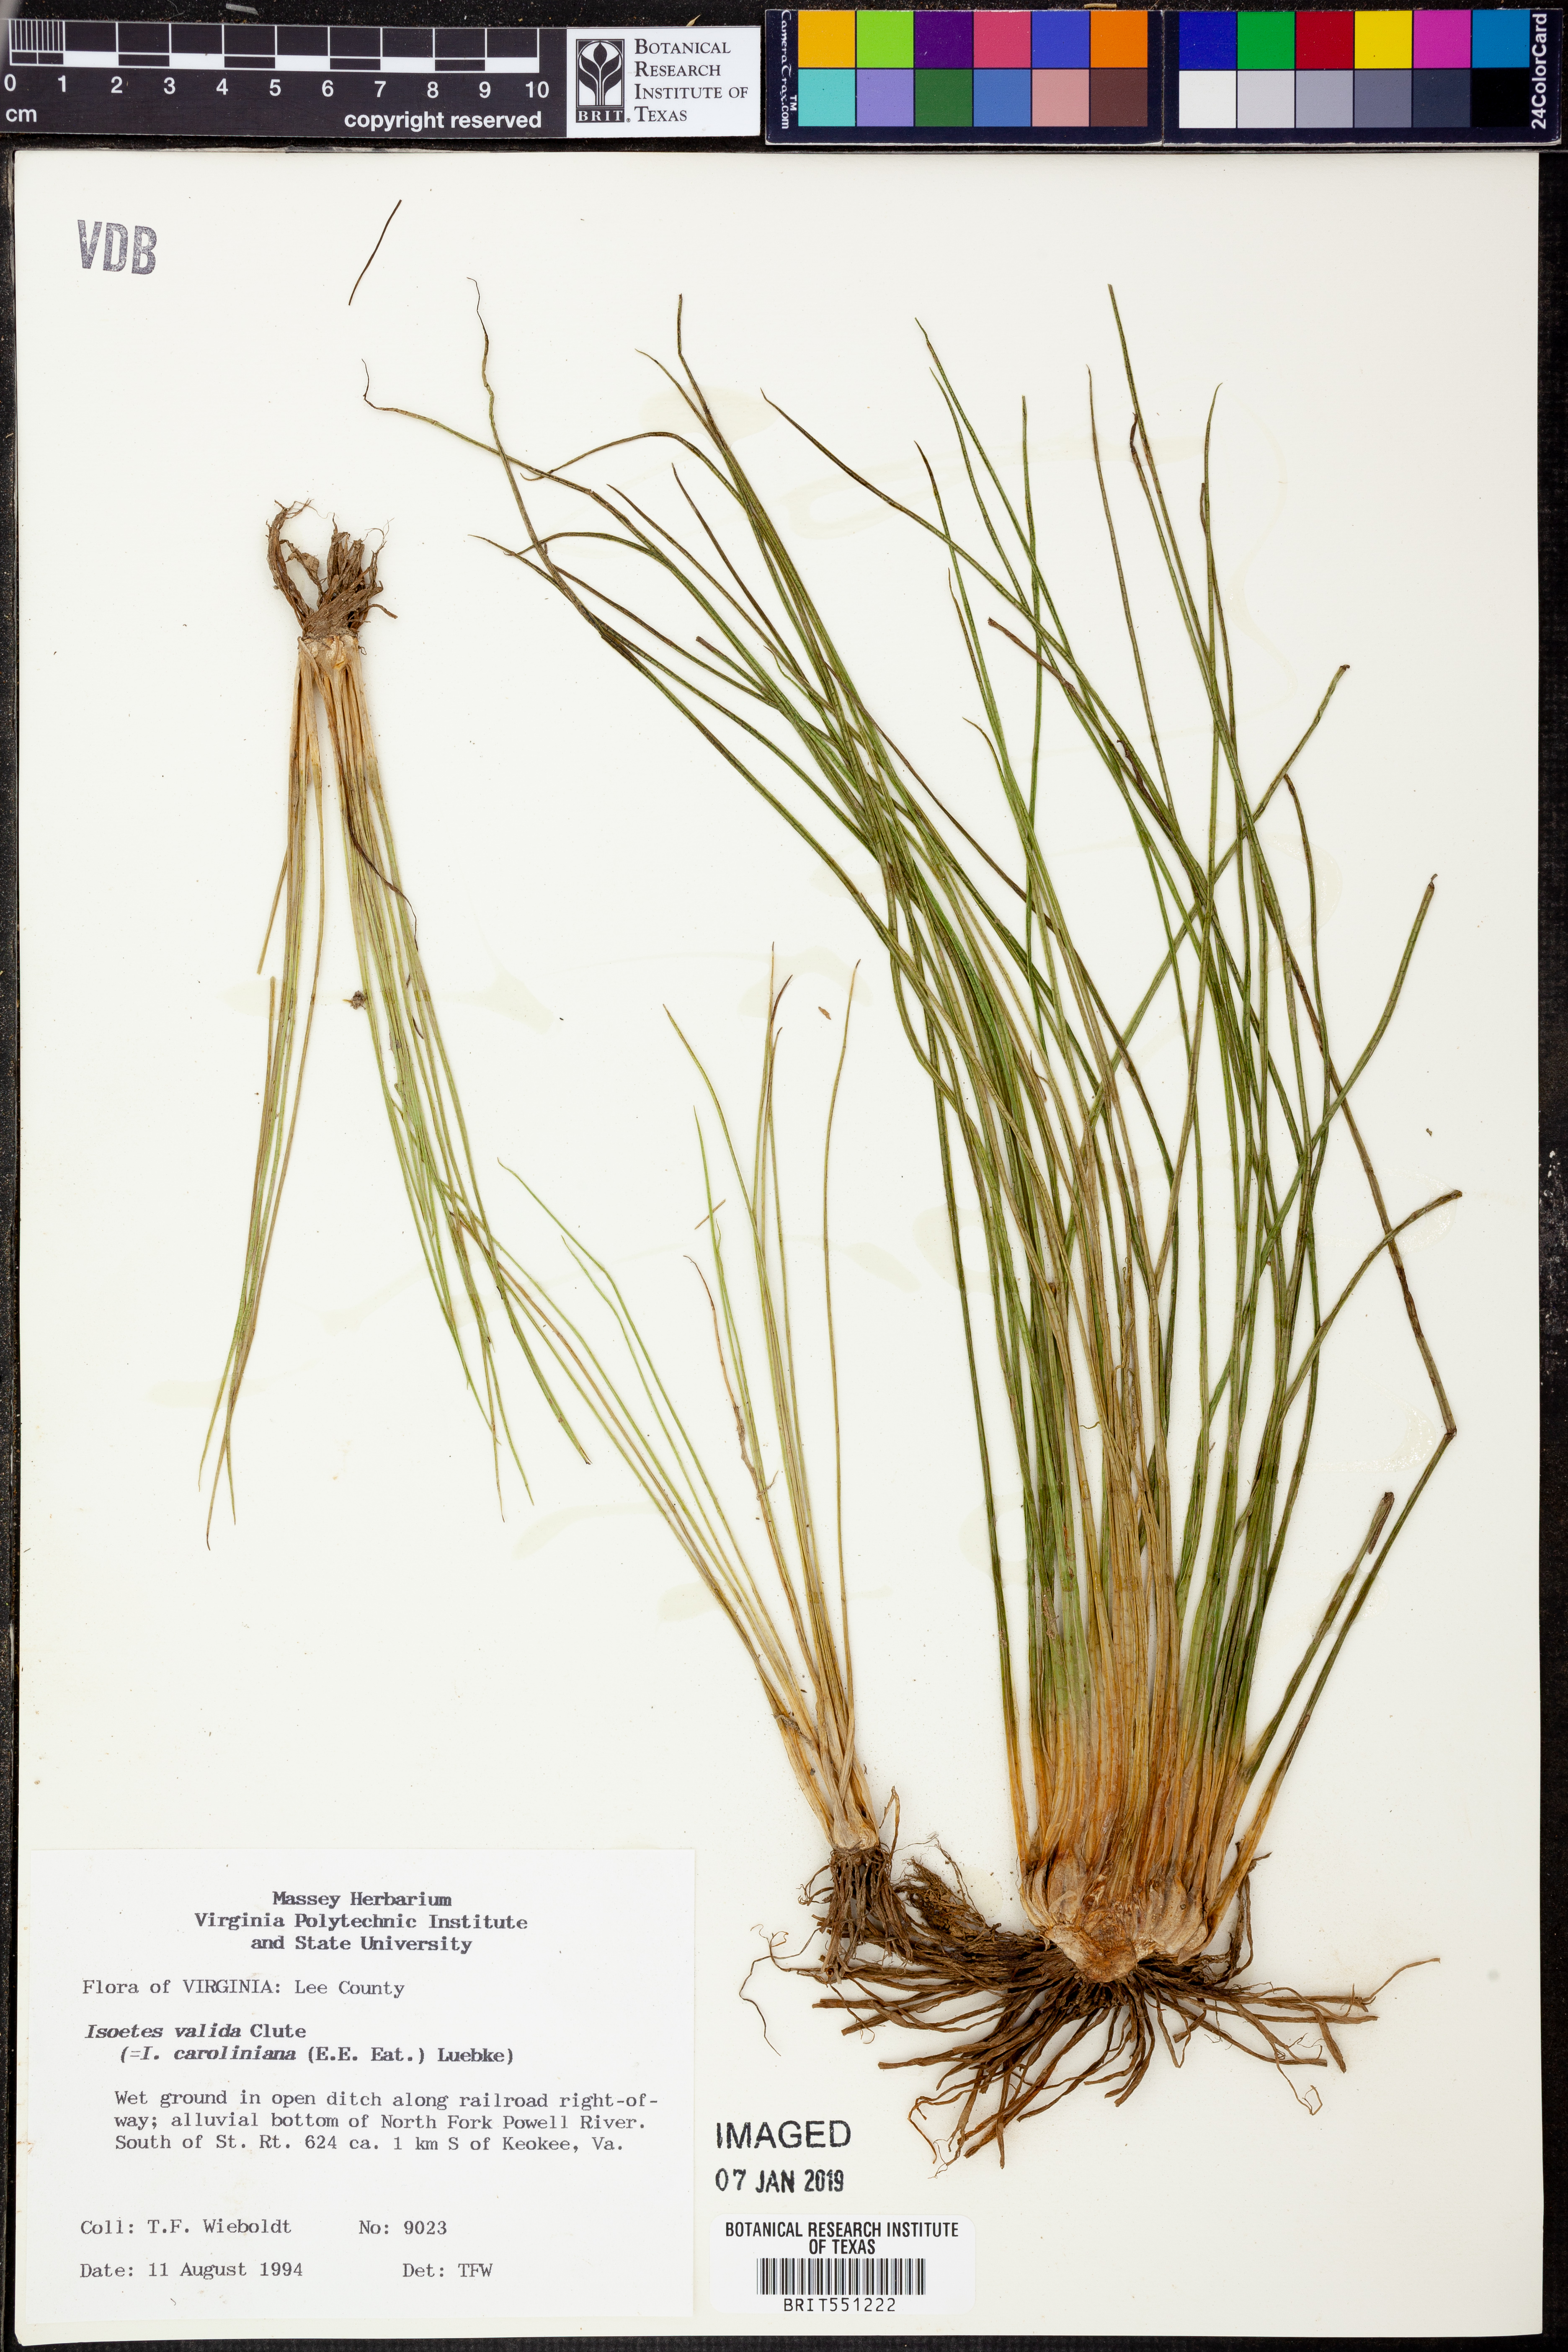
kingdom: Plantae
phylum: Tracheophyta
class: Lycopodiopsida
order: Isoetales
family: Isoetaceae
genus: Isoetes
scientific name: Isoetes valida
